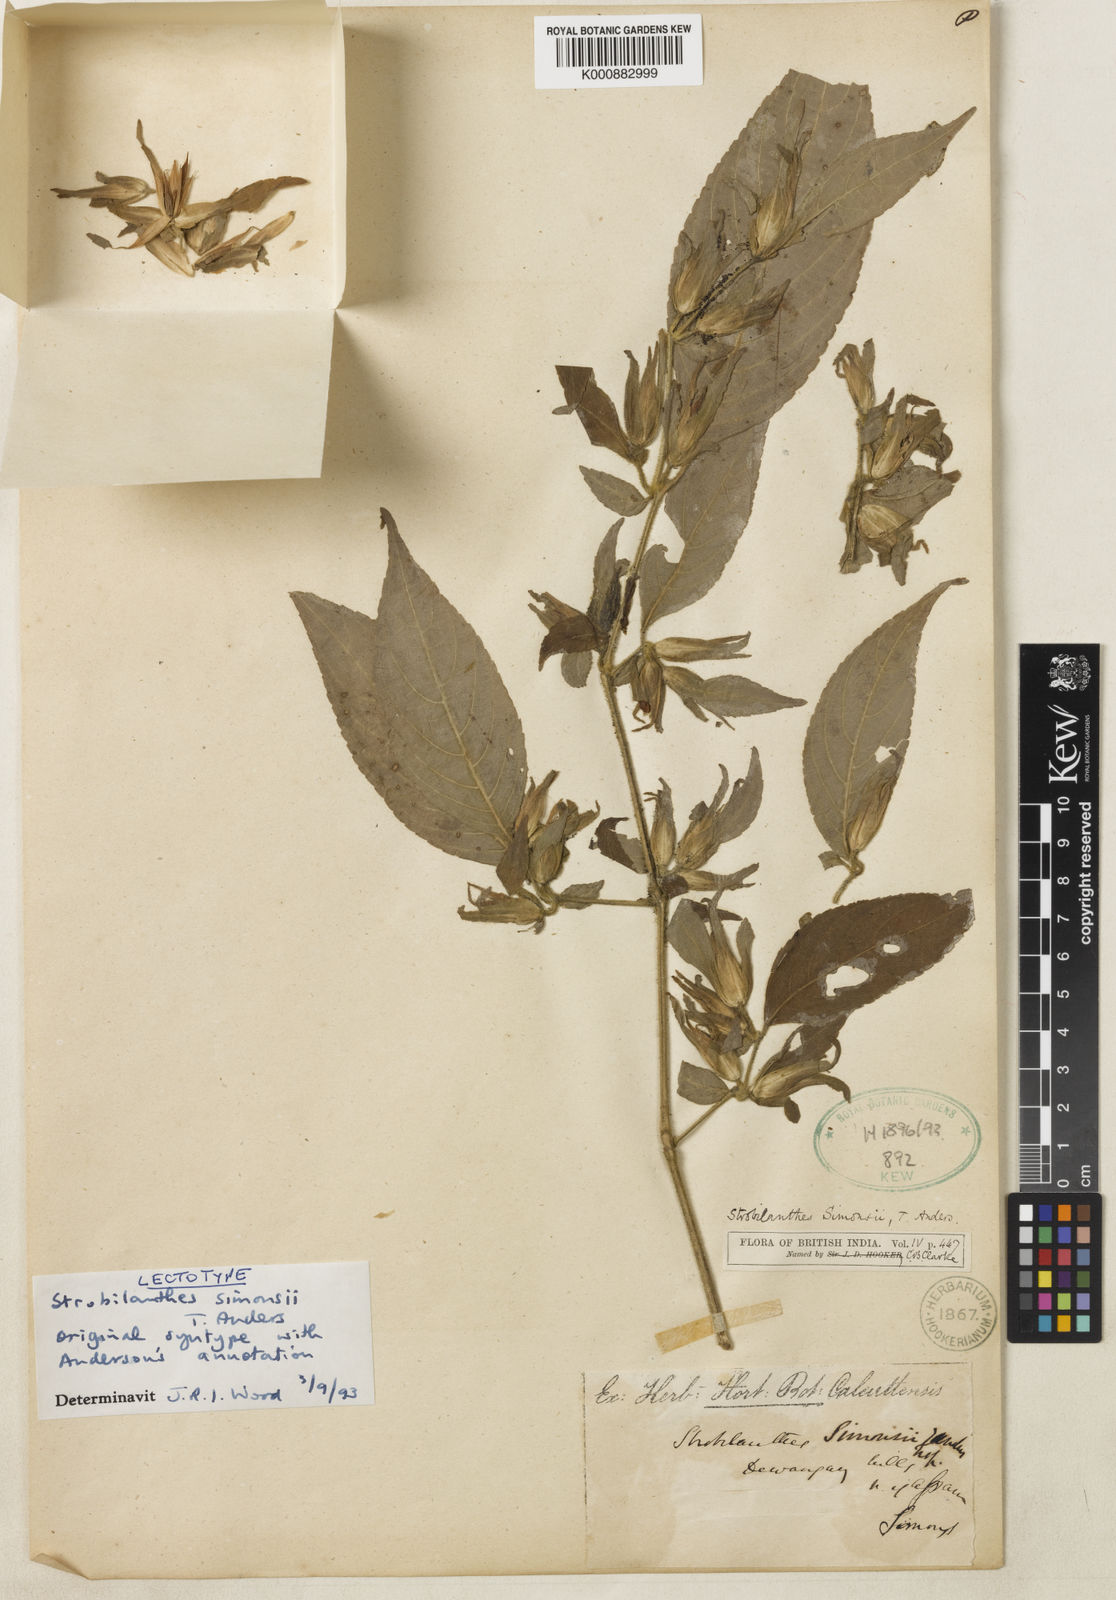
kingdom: Plantae
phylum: Tracheophyta
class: Magnoliopsida
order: Lamiales
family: Acanthaceae
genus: Strobilanthes
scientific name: Strobilanthes simonsii
